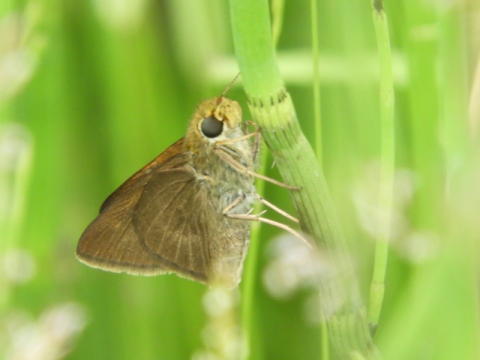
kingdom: Animalia
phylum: Arthropoda
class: Insecta
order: Lepidoptera
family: Hesperiidae
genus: Euphyes
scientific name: Euphyes vestris
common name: Dun Skipper
